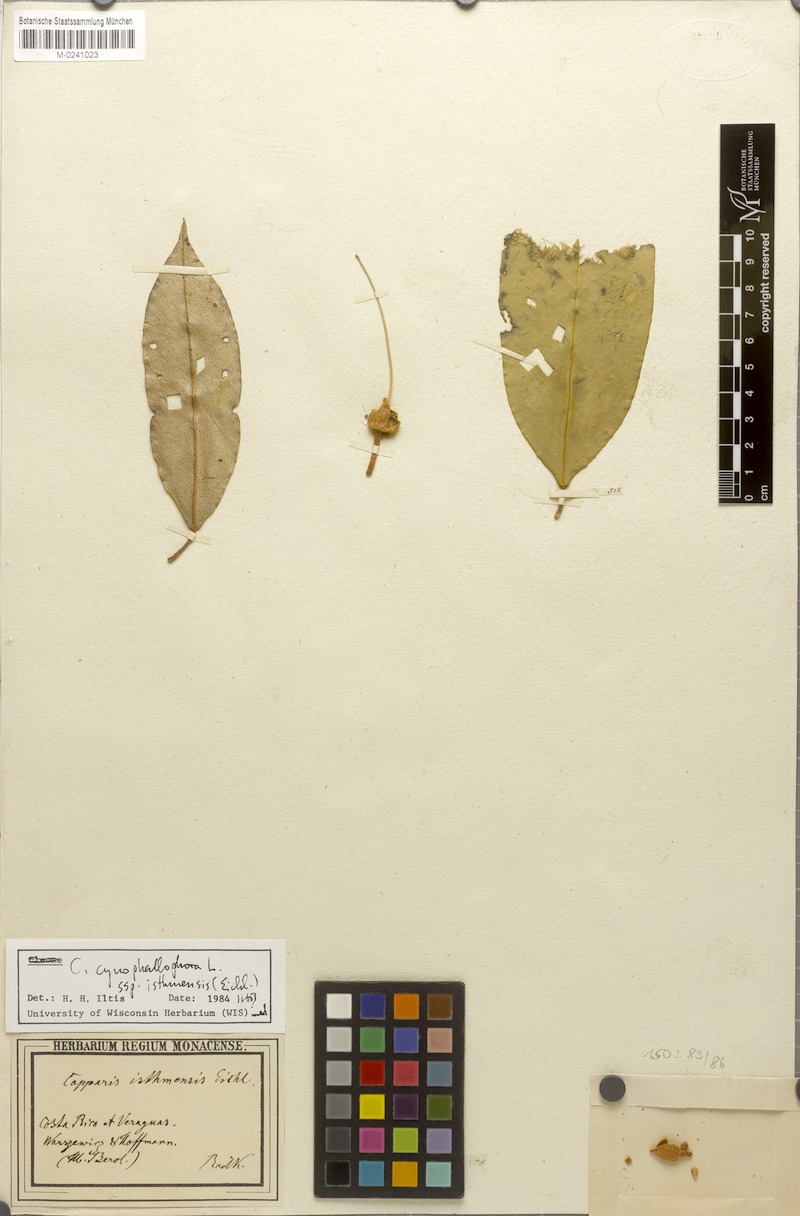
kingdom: Plantae
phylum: Tracheophyta
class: Magnoliopsida
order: Brassicales
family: Capparaceae
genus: Quadrella
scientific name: Quadrella isthmensis
